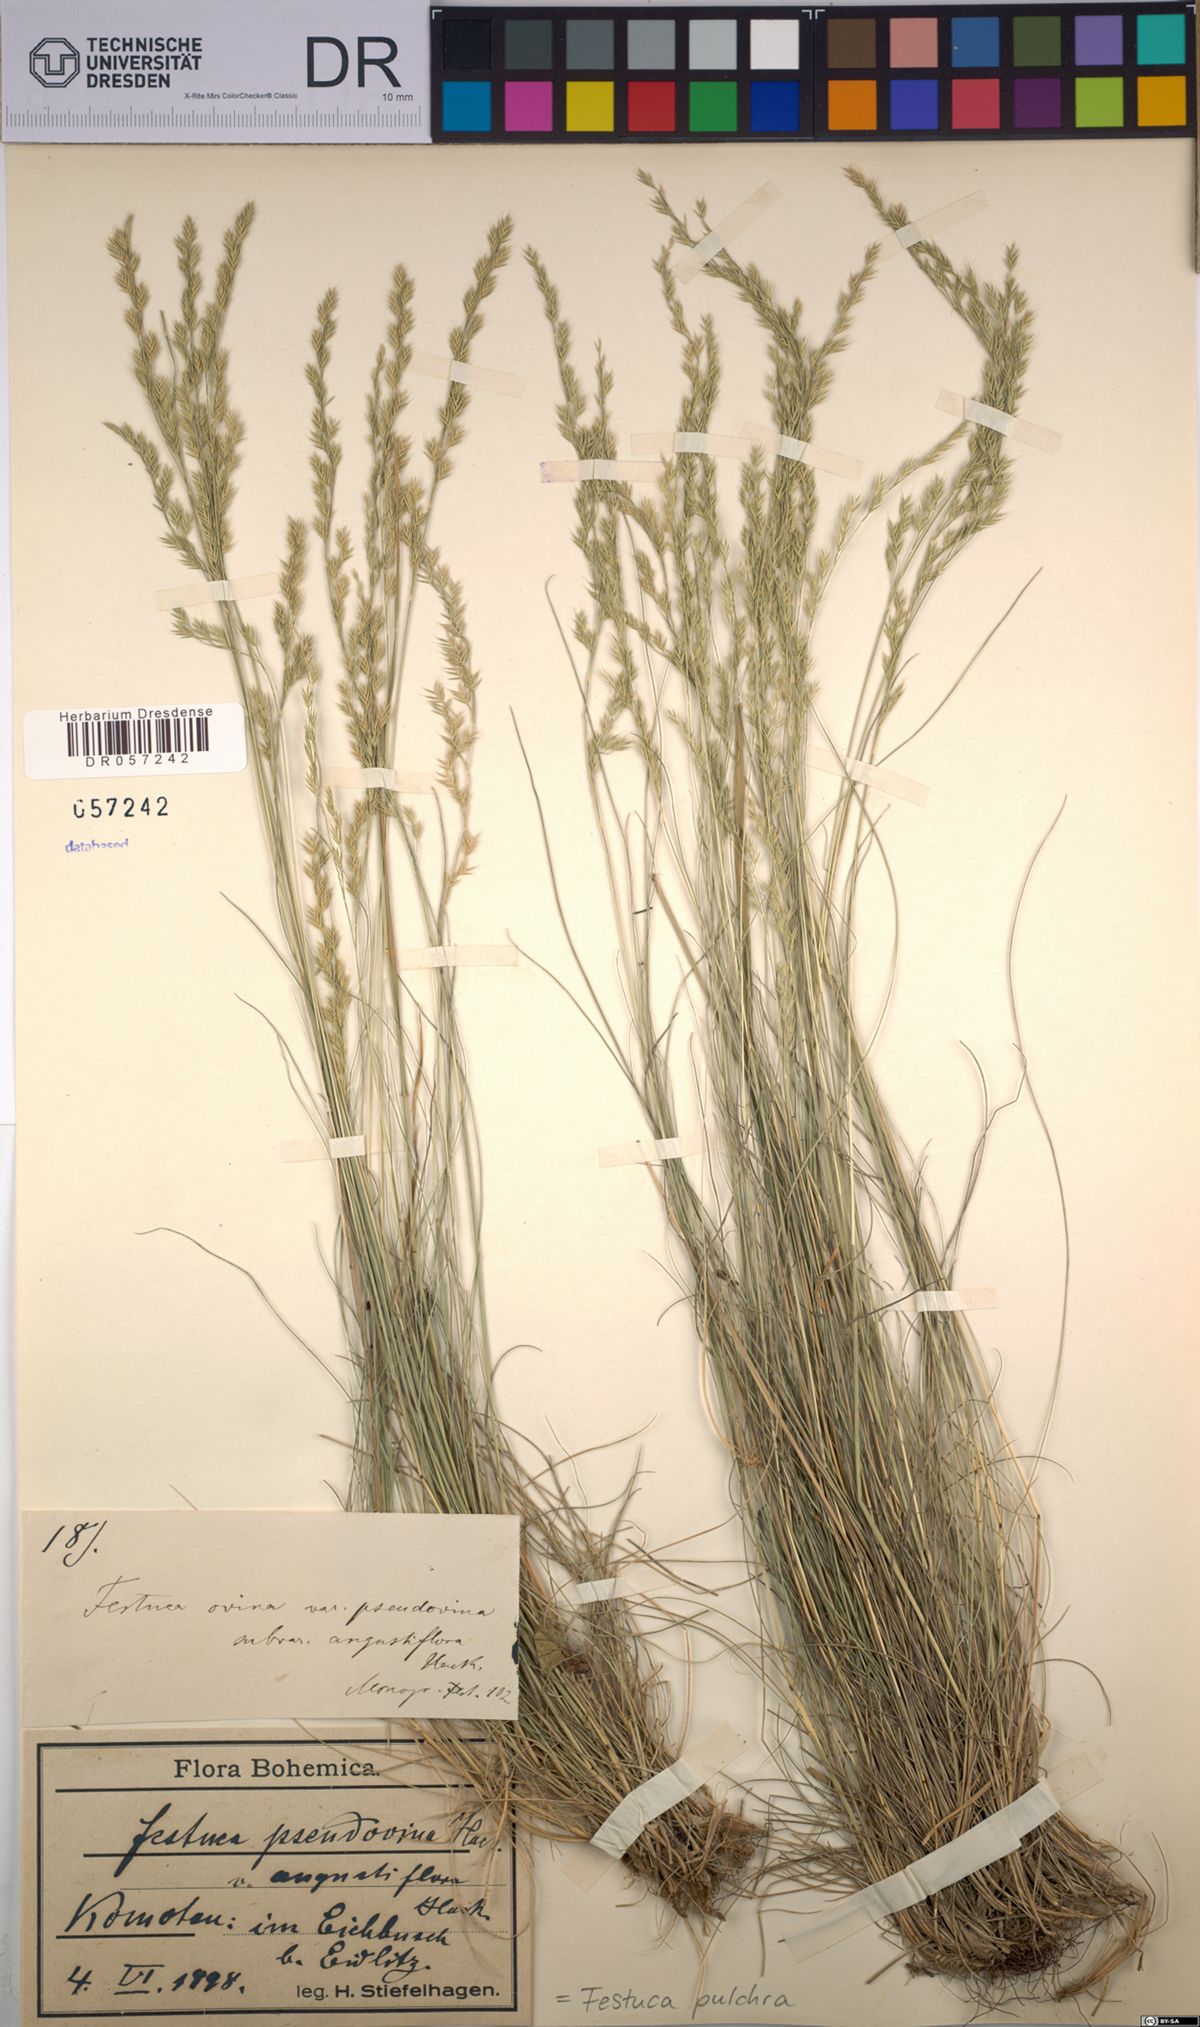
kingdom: Plantae
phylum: Tracheophyta
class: Liliopsida
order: Poales
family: Poaceae
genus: Festuca
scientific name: Festuca pulchra
